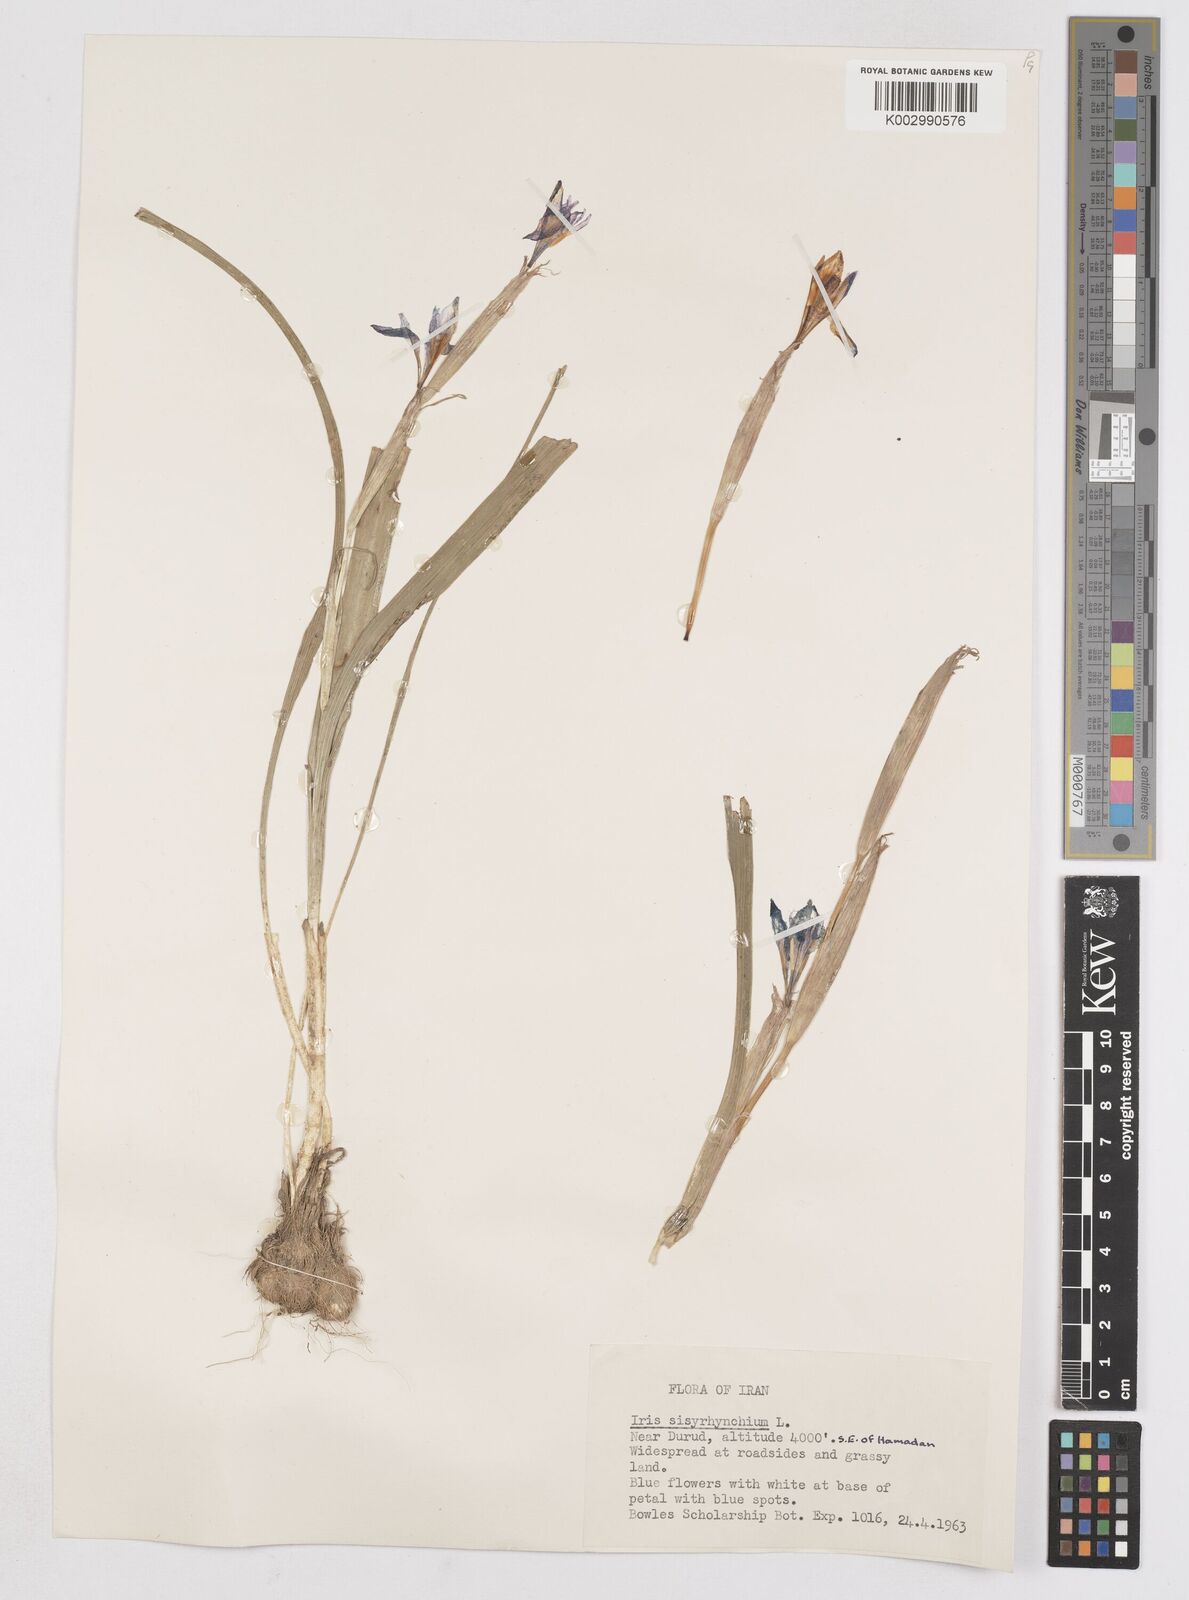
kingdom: Plantae
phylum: Tracheophyta
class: Liliopsida
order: Asparagales
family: Iridaceae
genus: Moraea
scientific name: Moraea sisyrinchium
